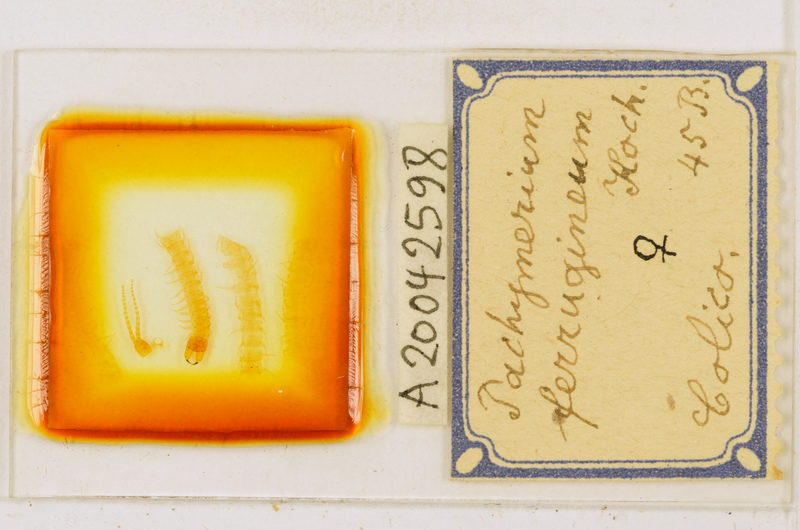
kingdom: Animalia
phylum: Arthropoda
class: Chilopoda
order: Geophilomorpha
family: Geophilidae
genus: Pachymerium
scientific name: Pachymerium ferrugineum
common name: Centipede
